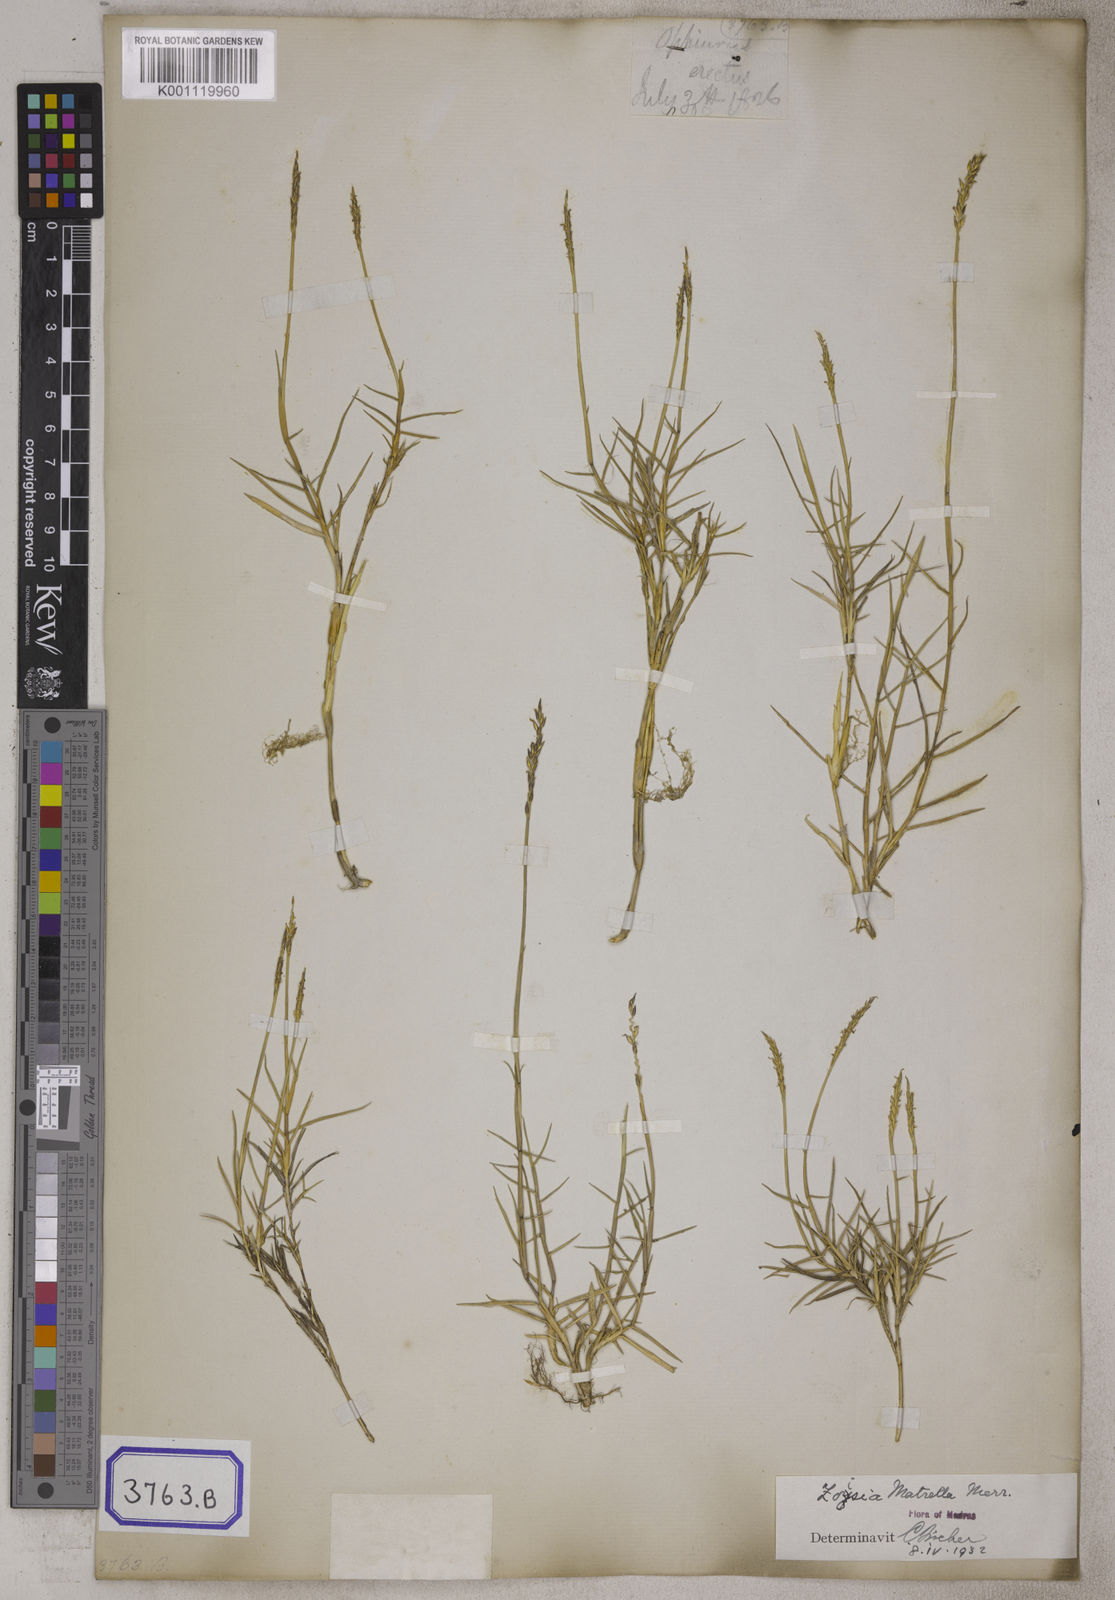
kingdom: Plantae
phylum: Tracheophyta
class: Liliopsida
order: Poales
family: Poaceae
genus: Zoysia
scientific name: Zoysia matrella
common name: Manila grass
